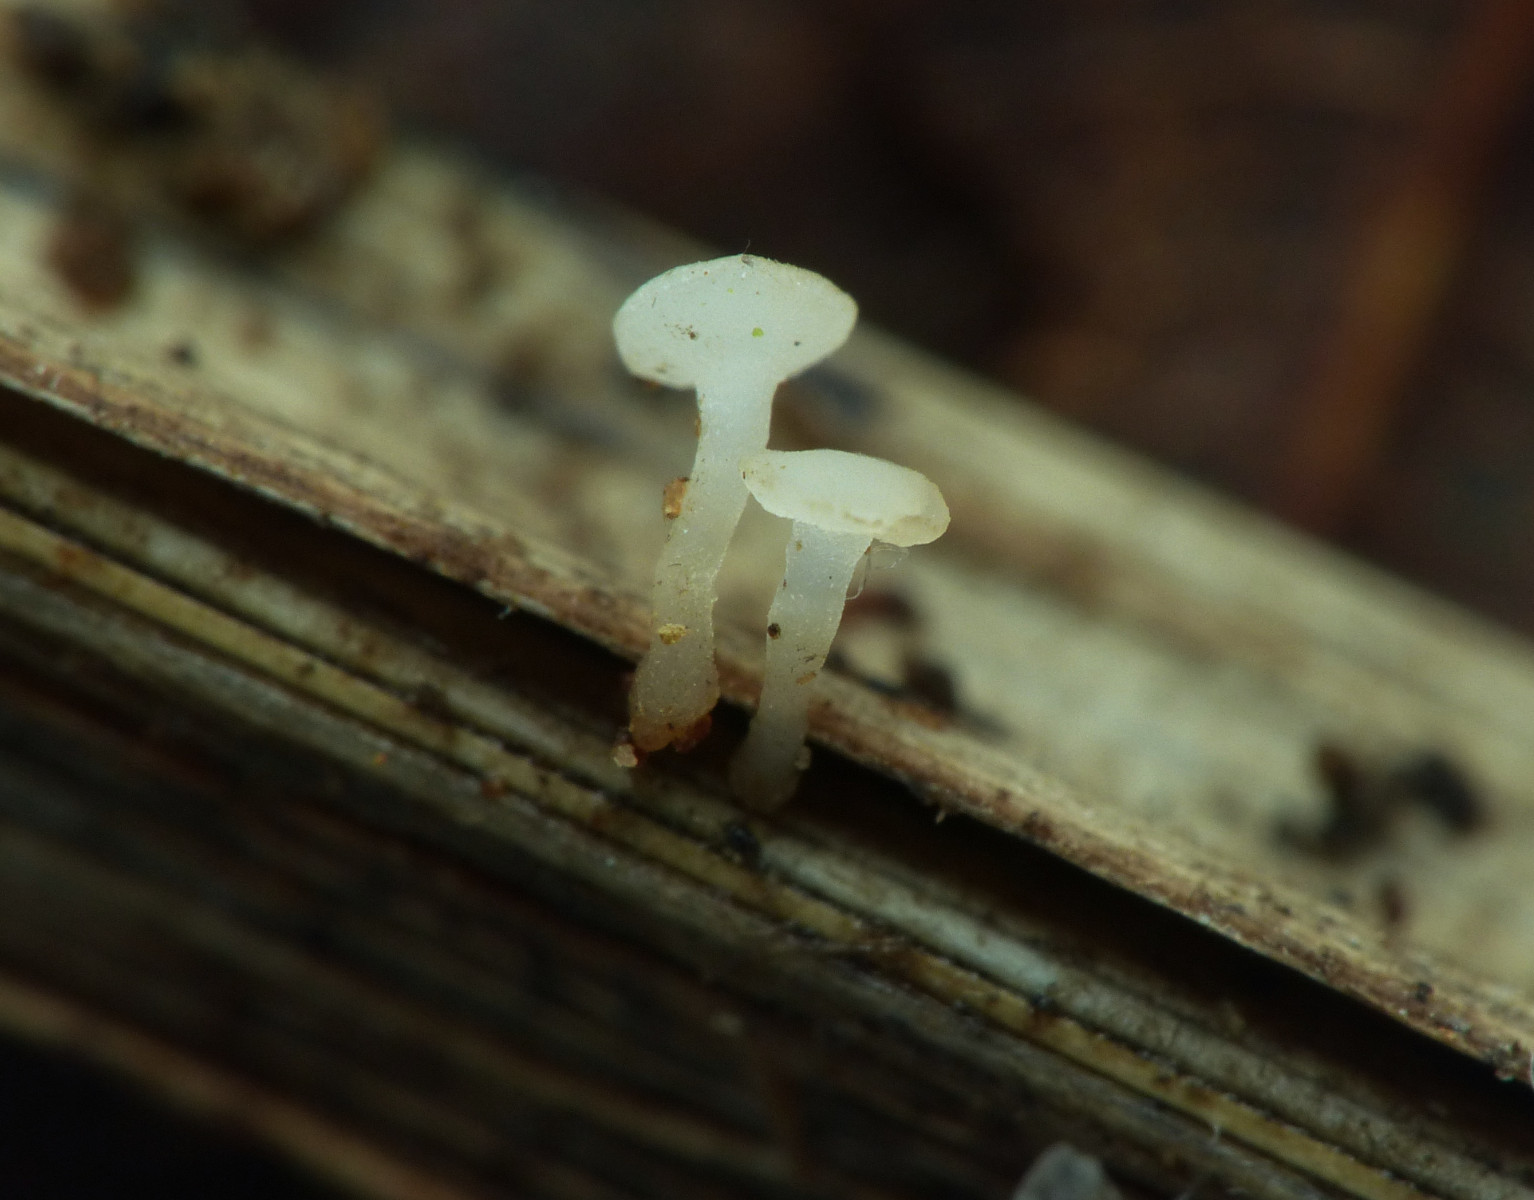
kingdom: Fungi
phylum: Ascomycota
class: Leotiomycetes
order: Helotiales
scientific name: Helotiales
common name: stilkskiveordenen
